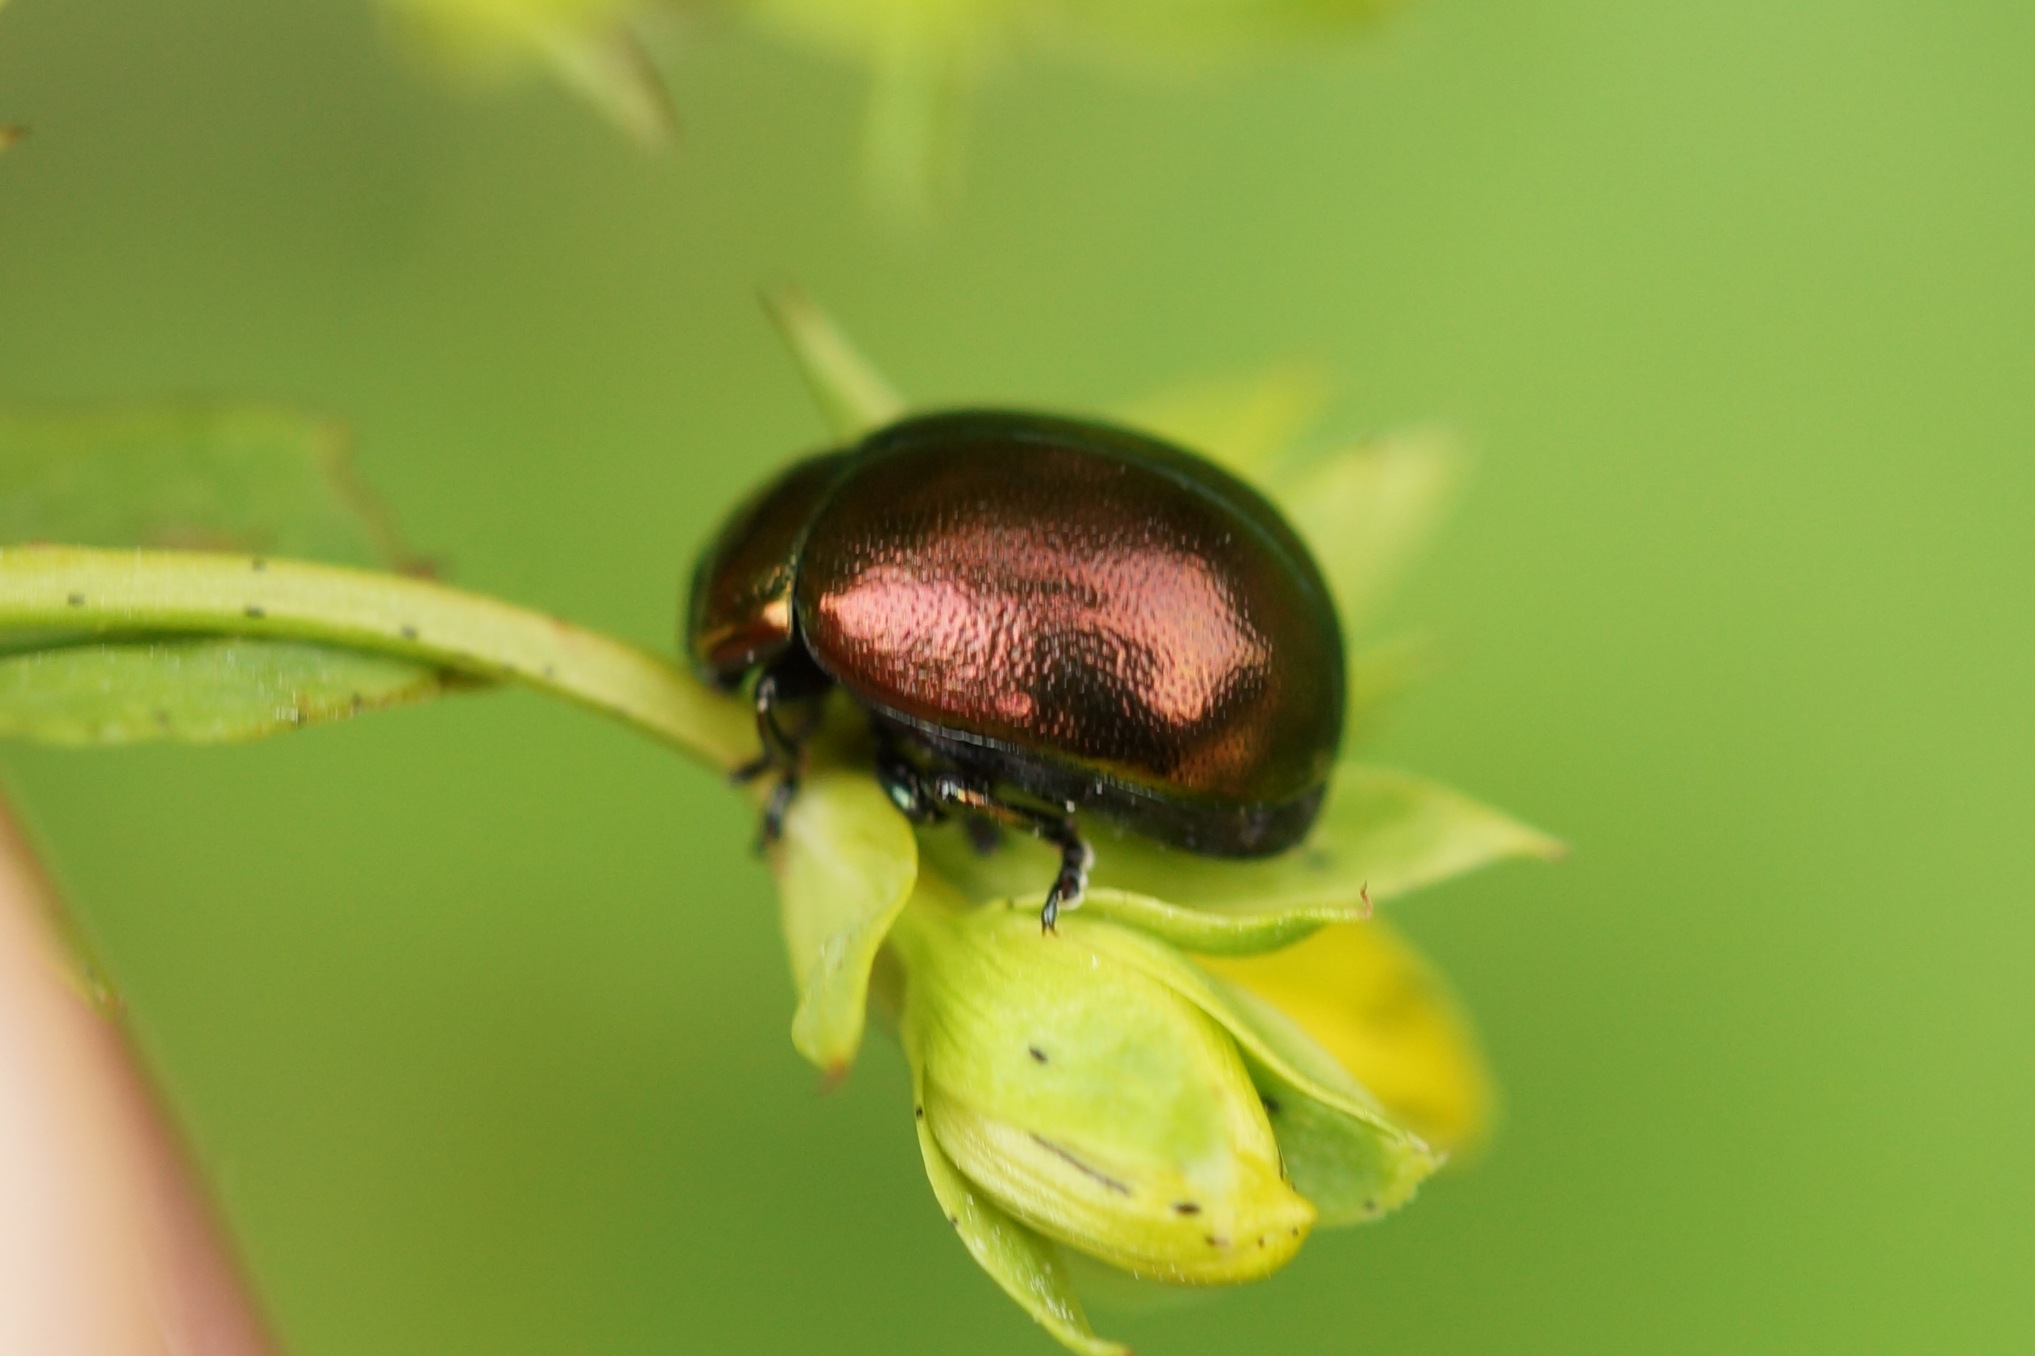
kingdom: Animalia
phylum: Arthropoda
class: Insecta
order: Coleoptera
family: Chrysomelidae
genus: Chrysolina
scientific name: Chrysolina varians
